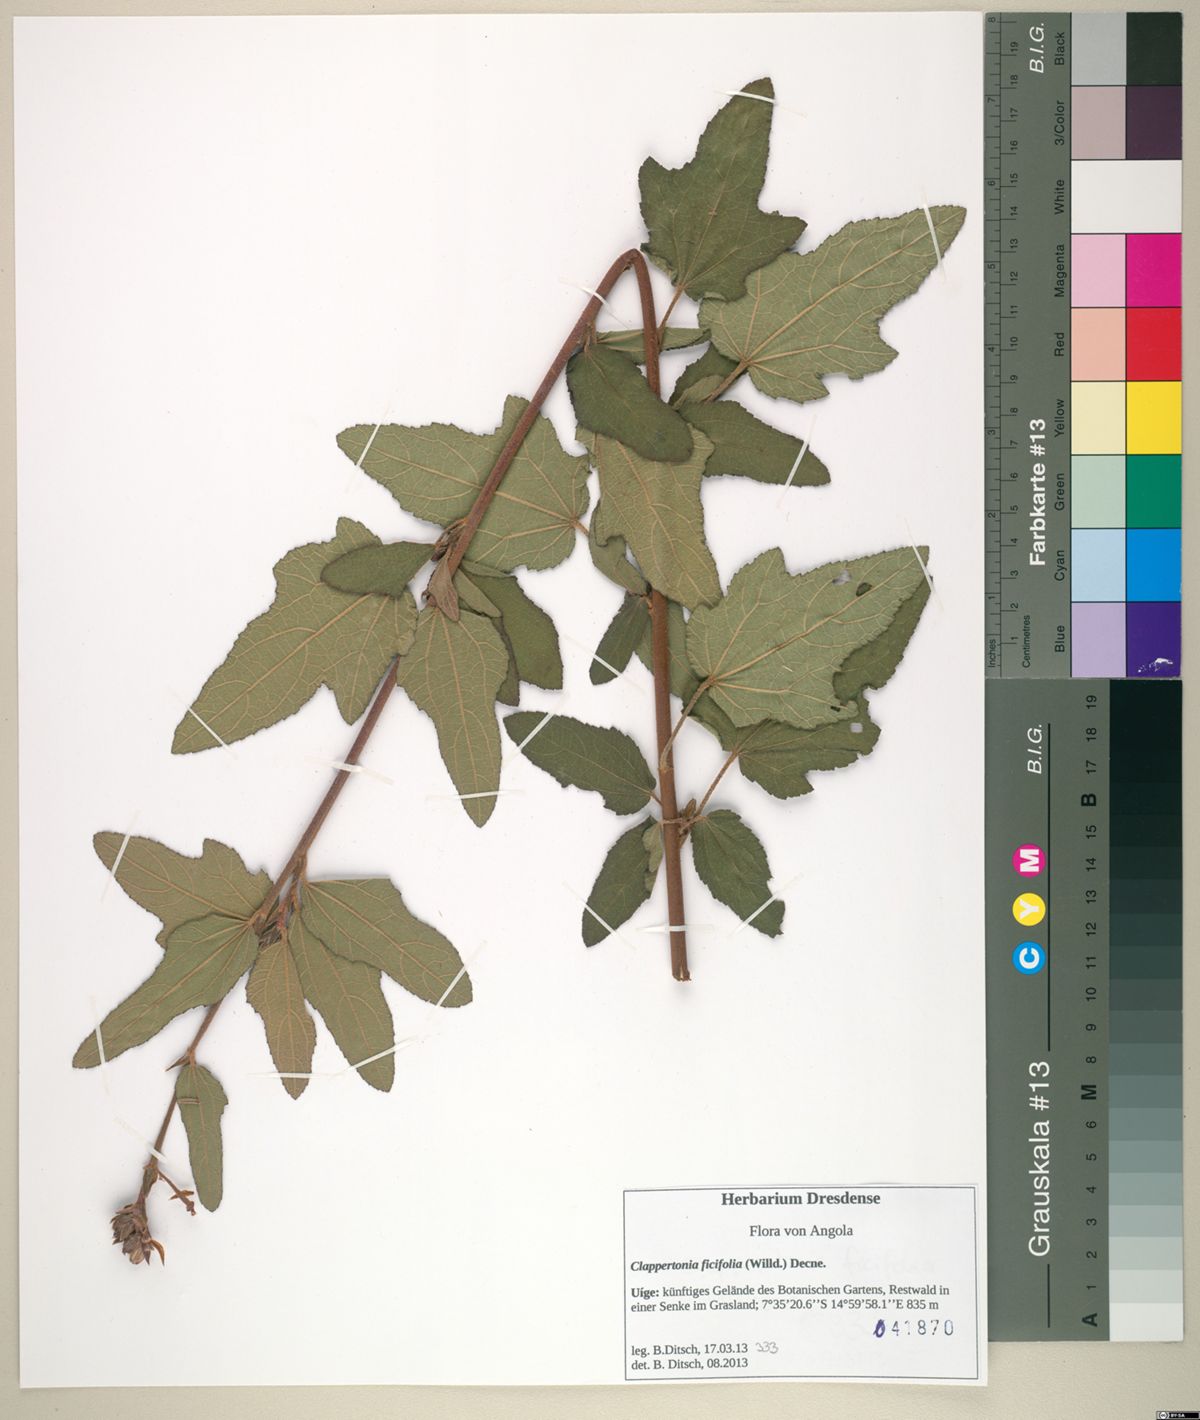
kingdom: Plantae
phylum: Tracheophyta
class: Magnoliopsida
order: Malvales
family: Malvaceae
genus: Clappertonia
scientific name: Clappertonia ficifolia
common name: Bolo-bolo
